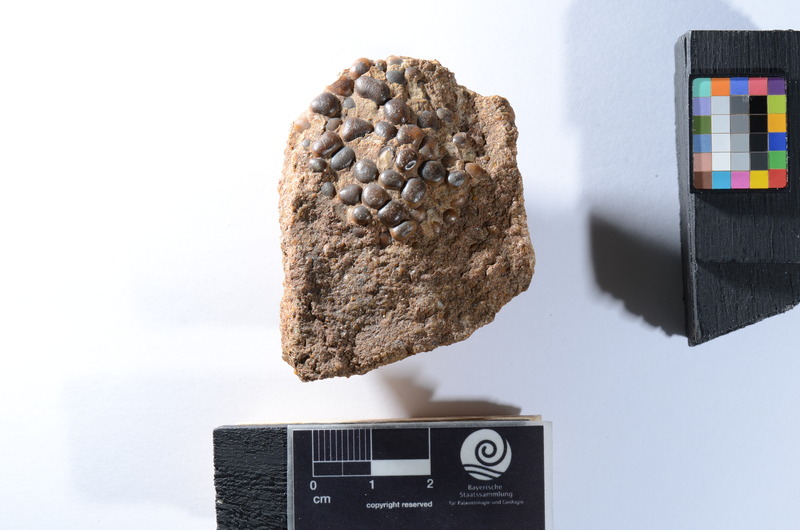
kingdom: Animalia
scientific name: Animalia
